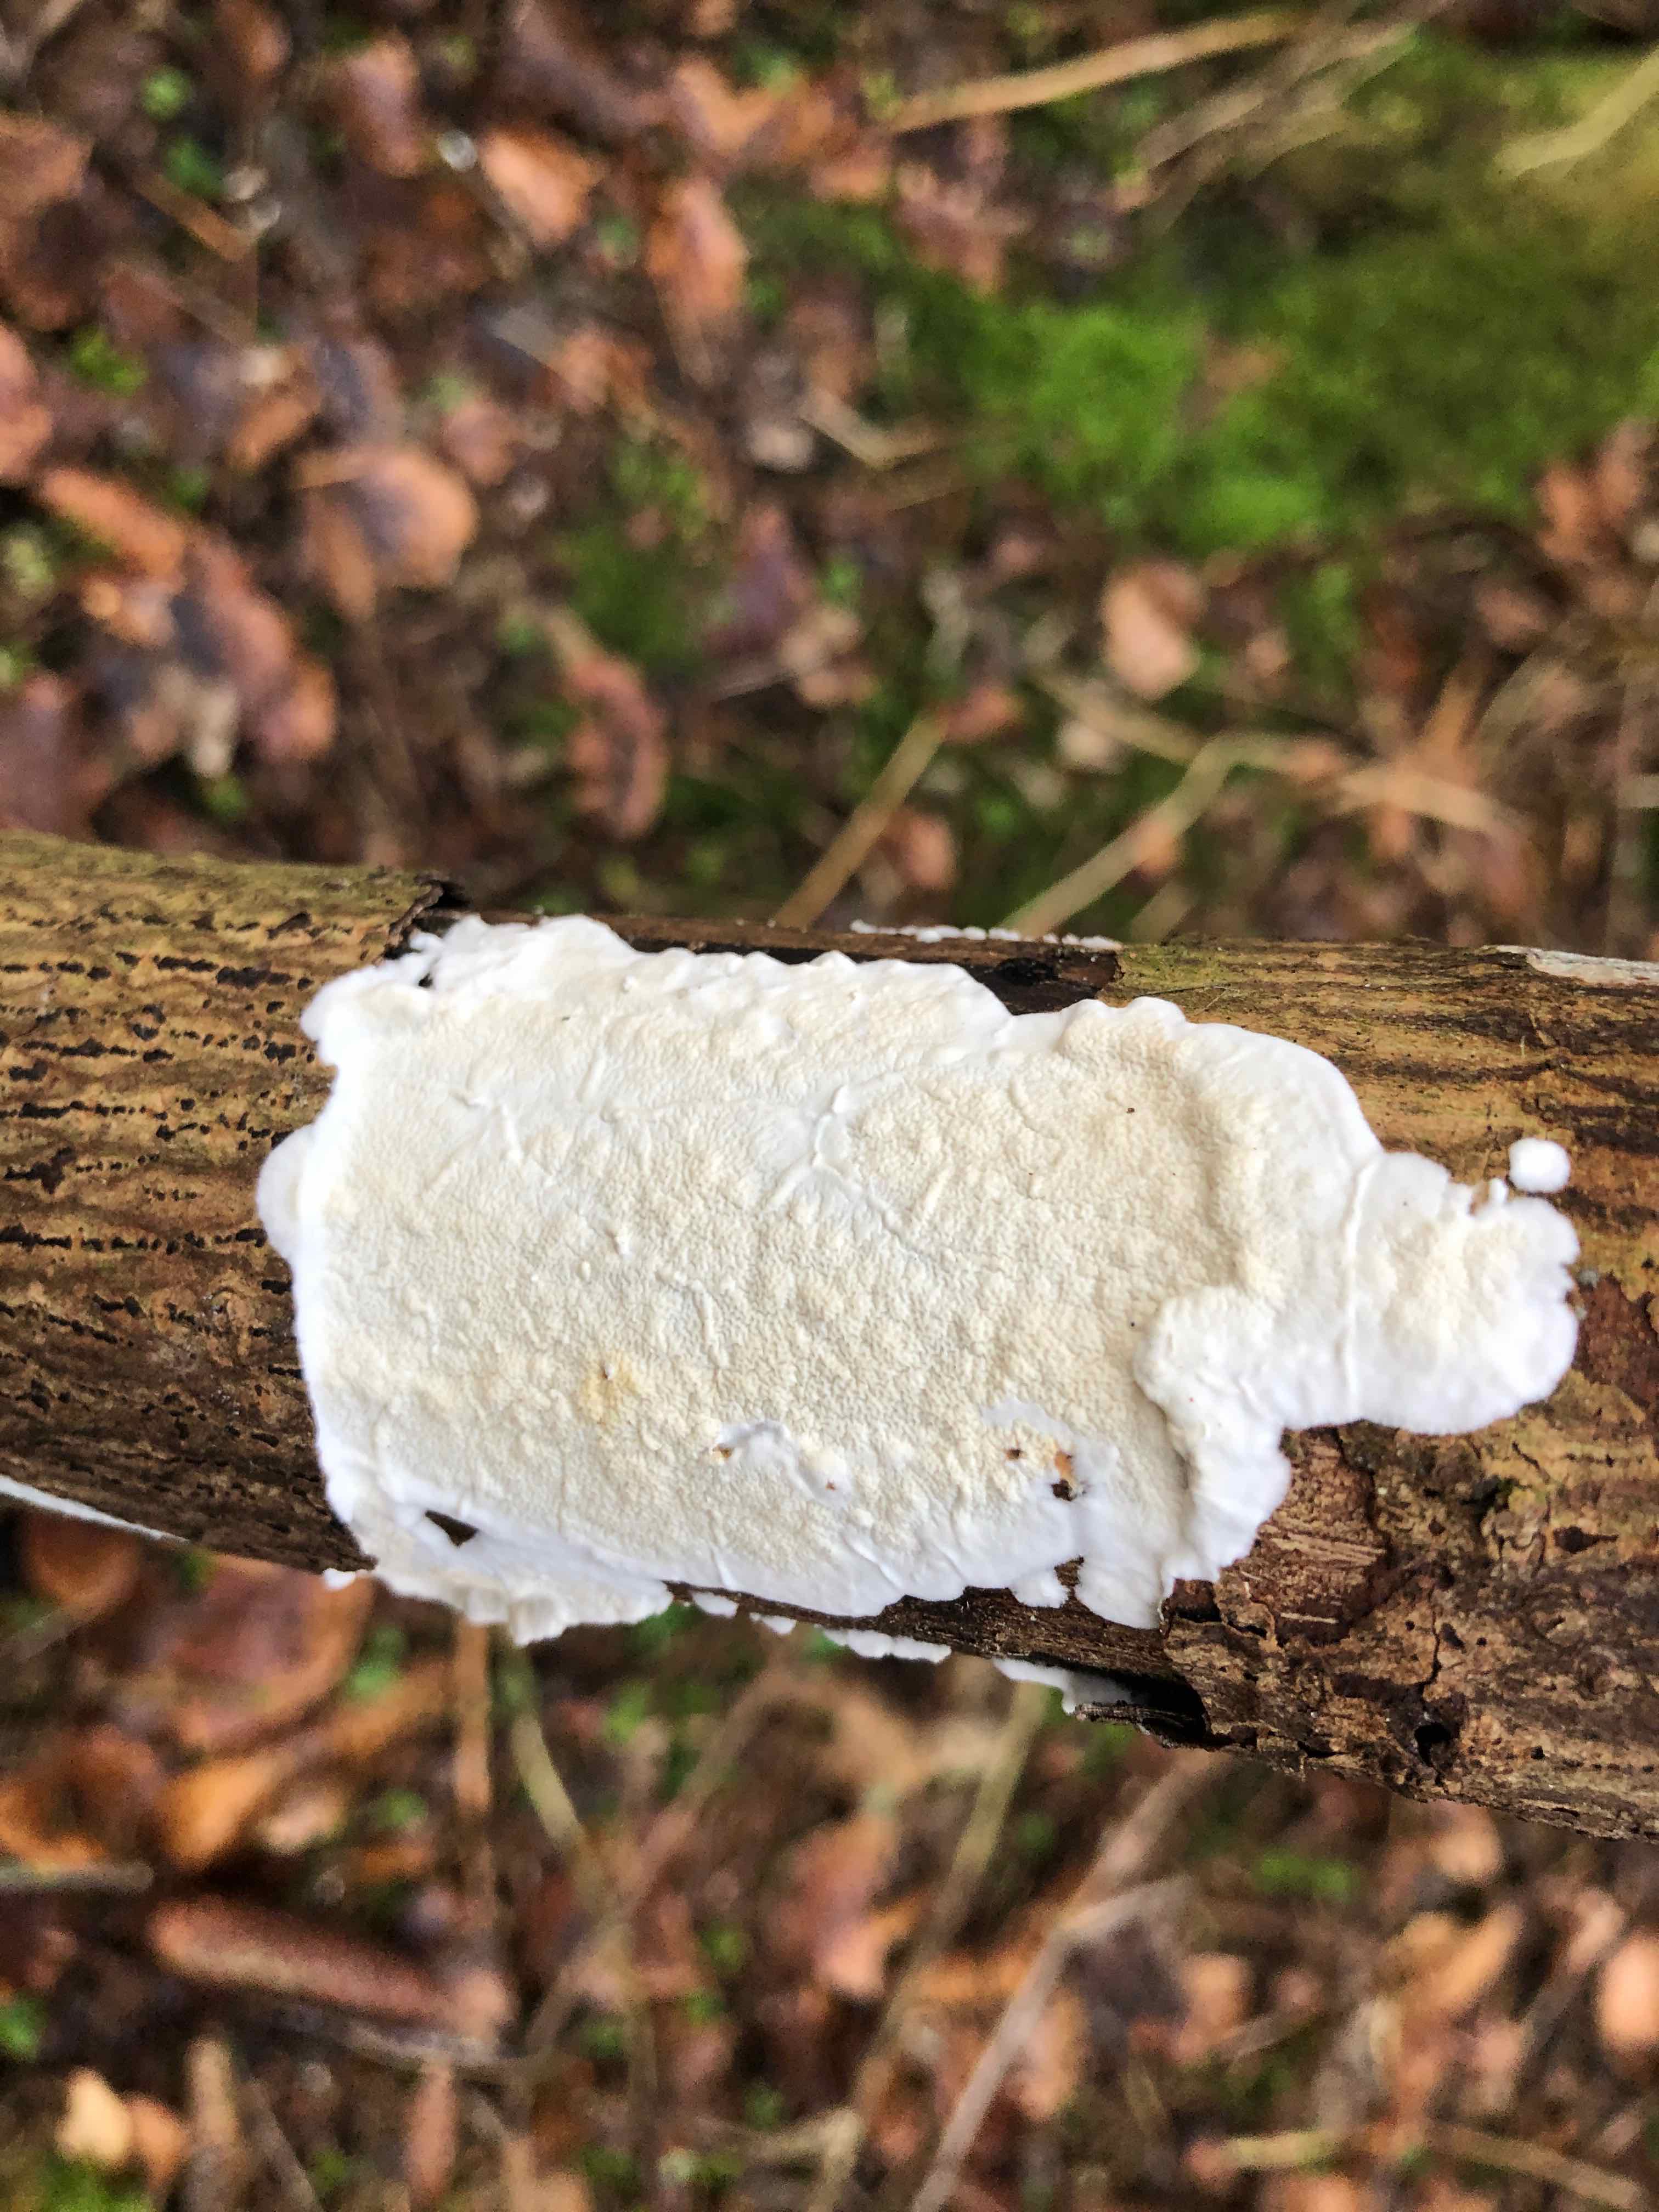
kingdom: Fungi
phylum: Basidiomycota
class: Agaricomycetes
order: Polyporales
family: Irpicaceae
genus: Byssomerulius
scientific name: Byssomerulius corium
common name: læder-åresvamp
